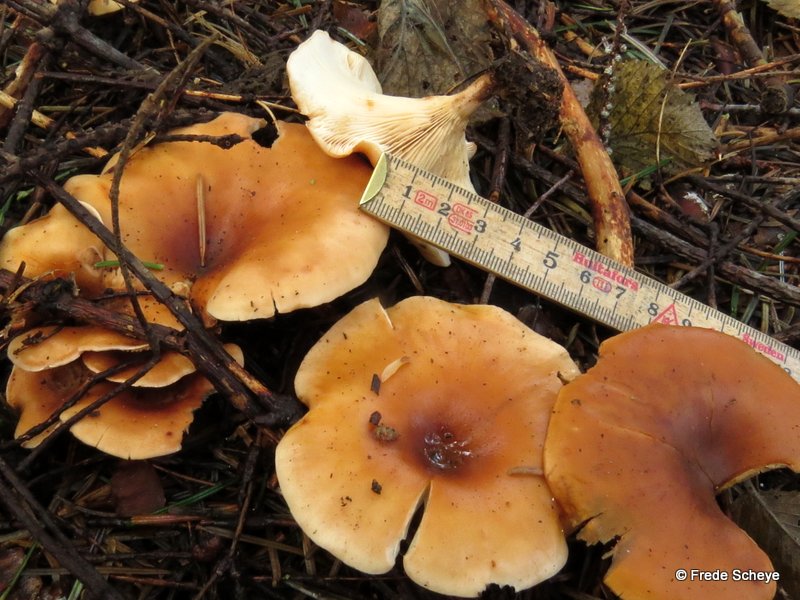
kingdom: Fungi
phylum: Basidiomycota
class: Agaricomycetes
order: Agaricales
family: Tricholomataceae
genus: Paralepista
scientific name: Paralepista flaccida
